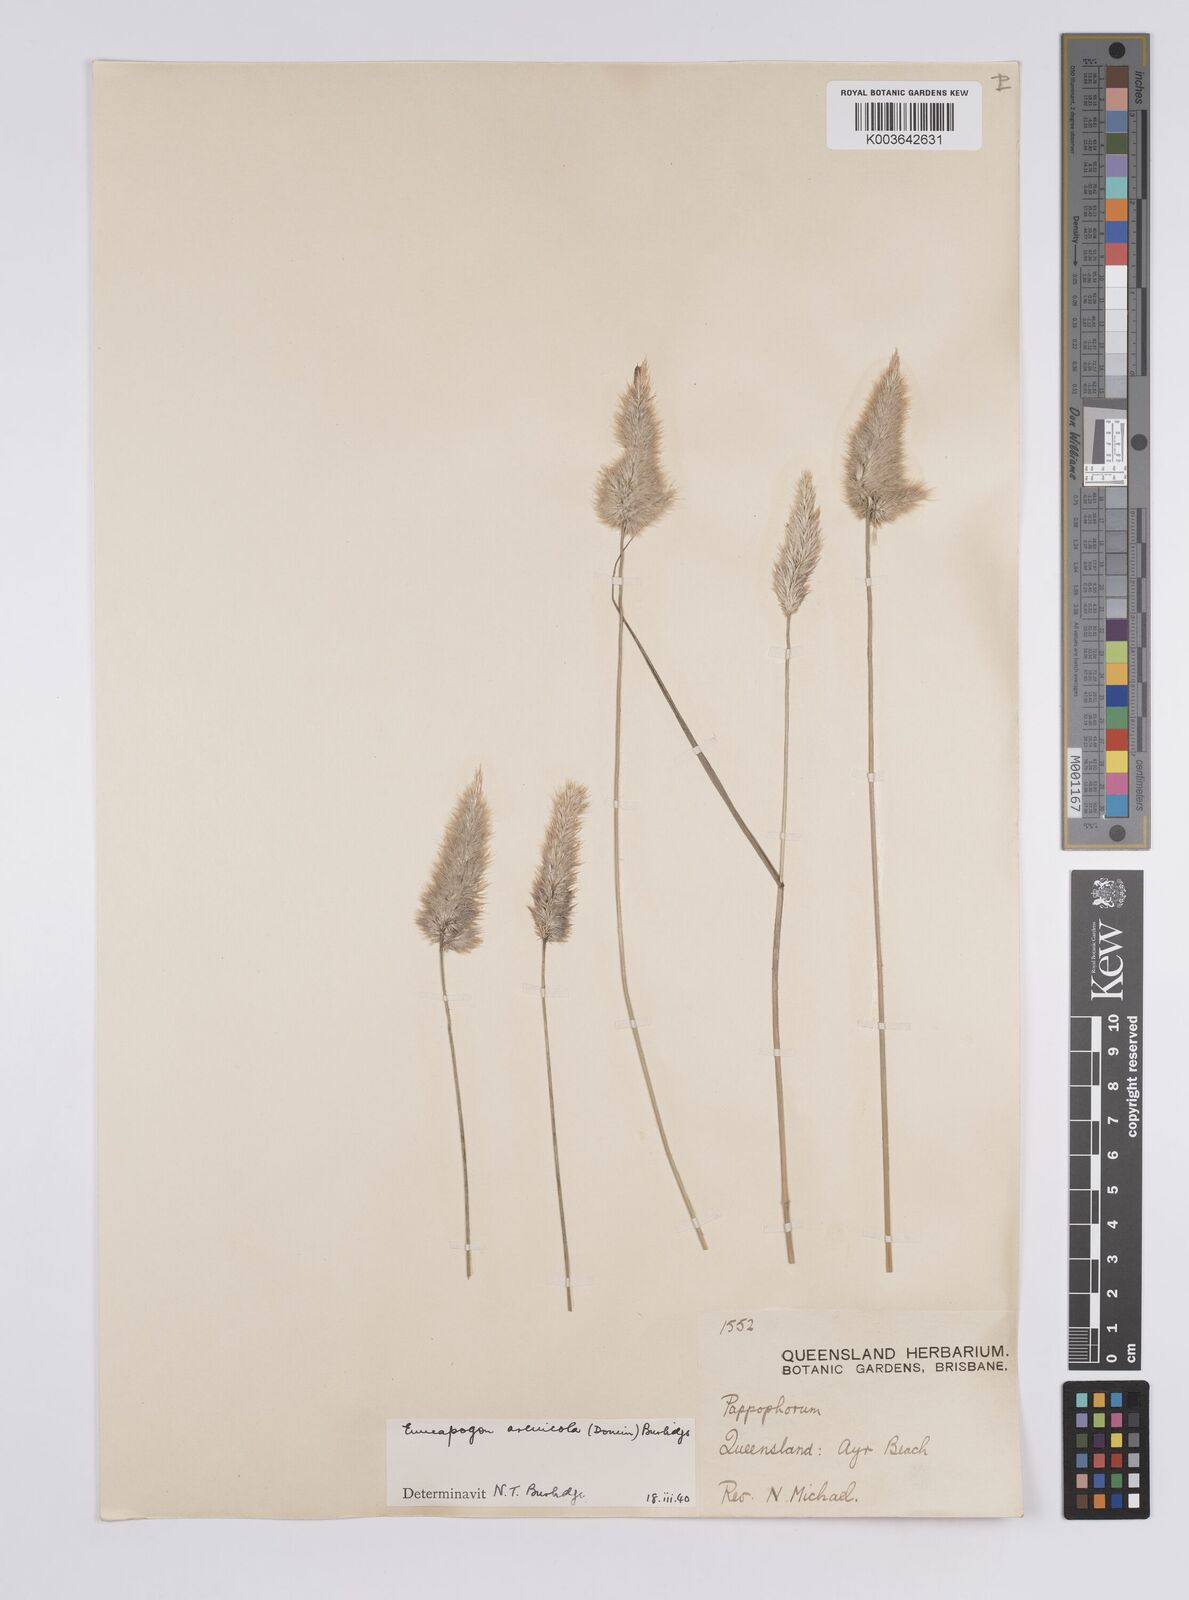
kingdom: Plantae
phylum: Tracheophyta
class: Liliopsida
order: Poales
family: Poaceae
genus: Enneapogon
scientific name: Enneapogon nigricans
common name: Pappus grass
